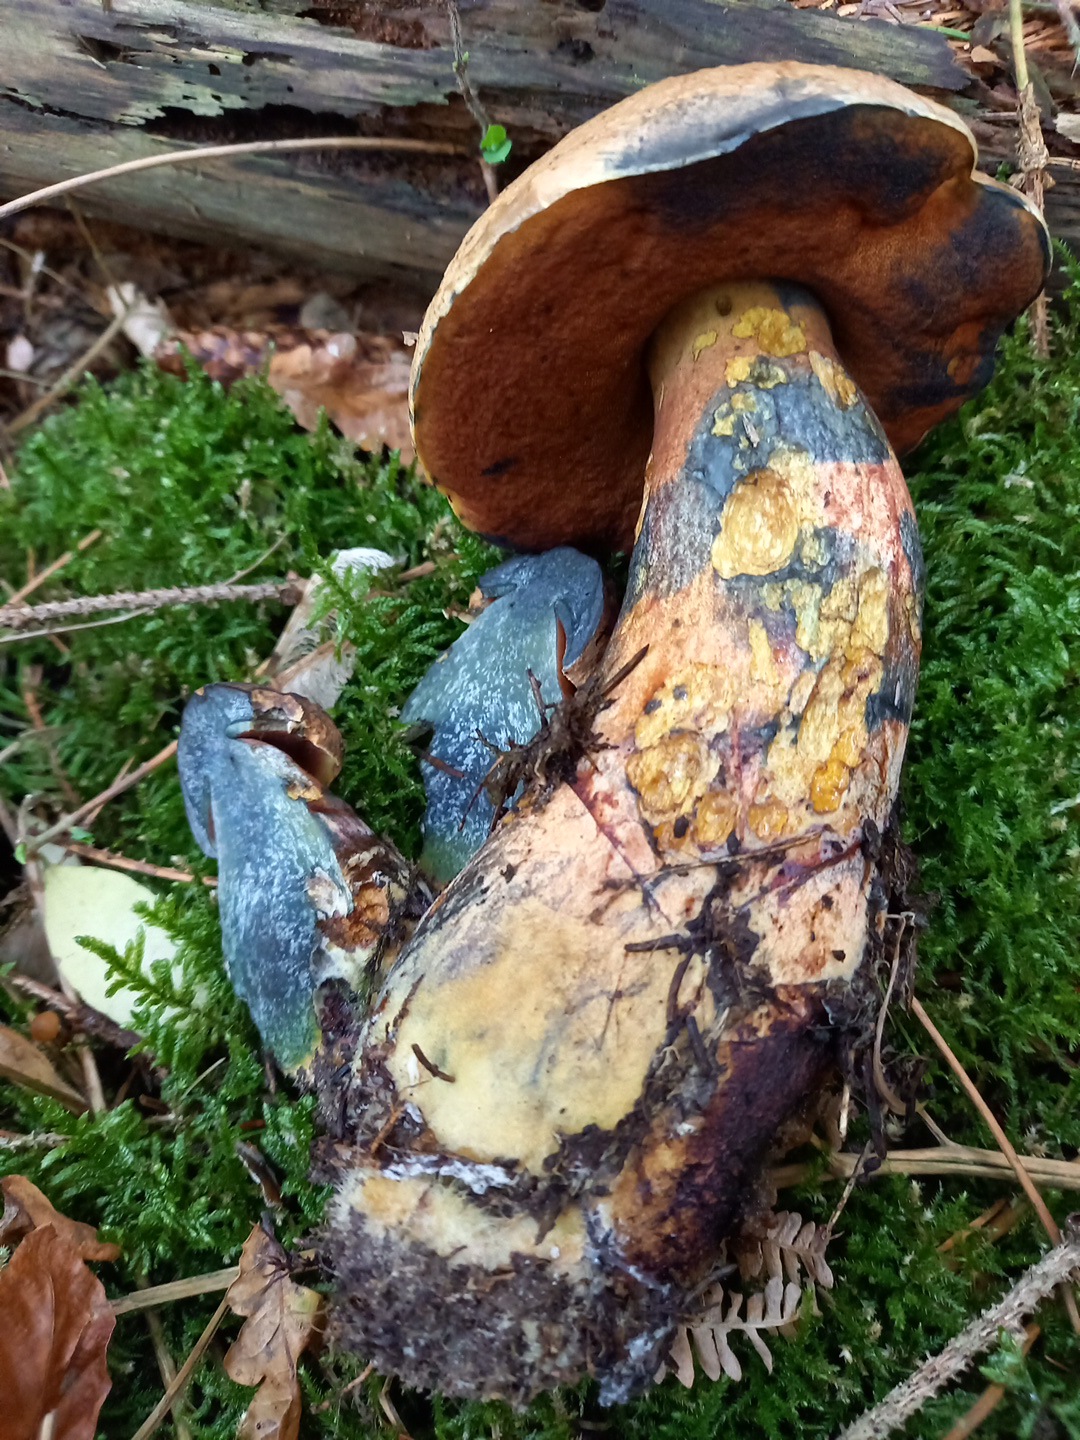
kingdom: Fungi
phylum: Basidiomycota
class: Agaricomycetes
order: Boletales
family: Boletaceae
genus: Neoboletus
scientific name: Neoboletus erythropus
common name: punktstokket indigorørhat
